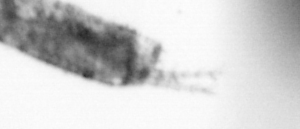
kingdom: Animalia
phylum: Arthropoda
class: Copepoda
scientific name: Copepoda
